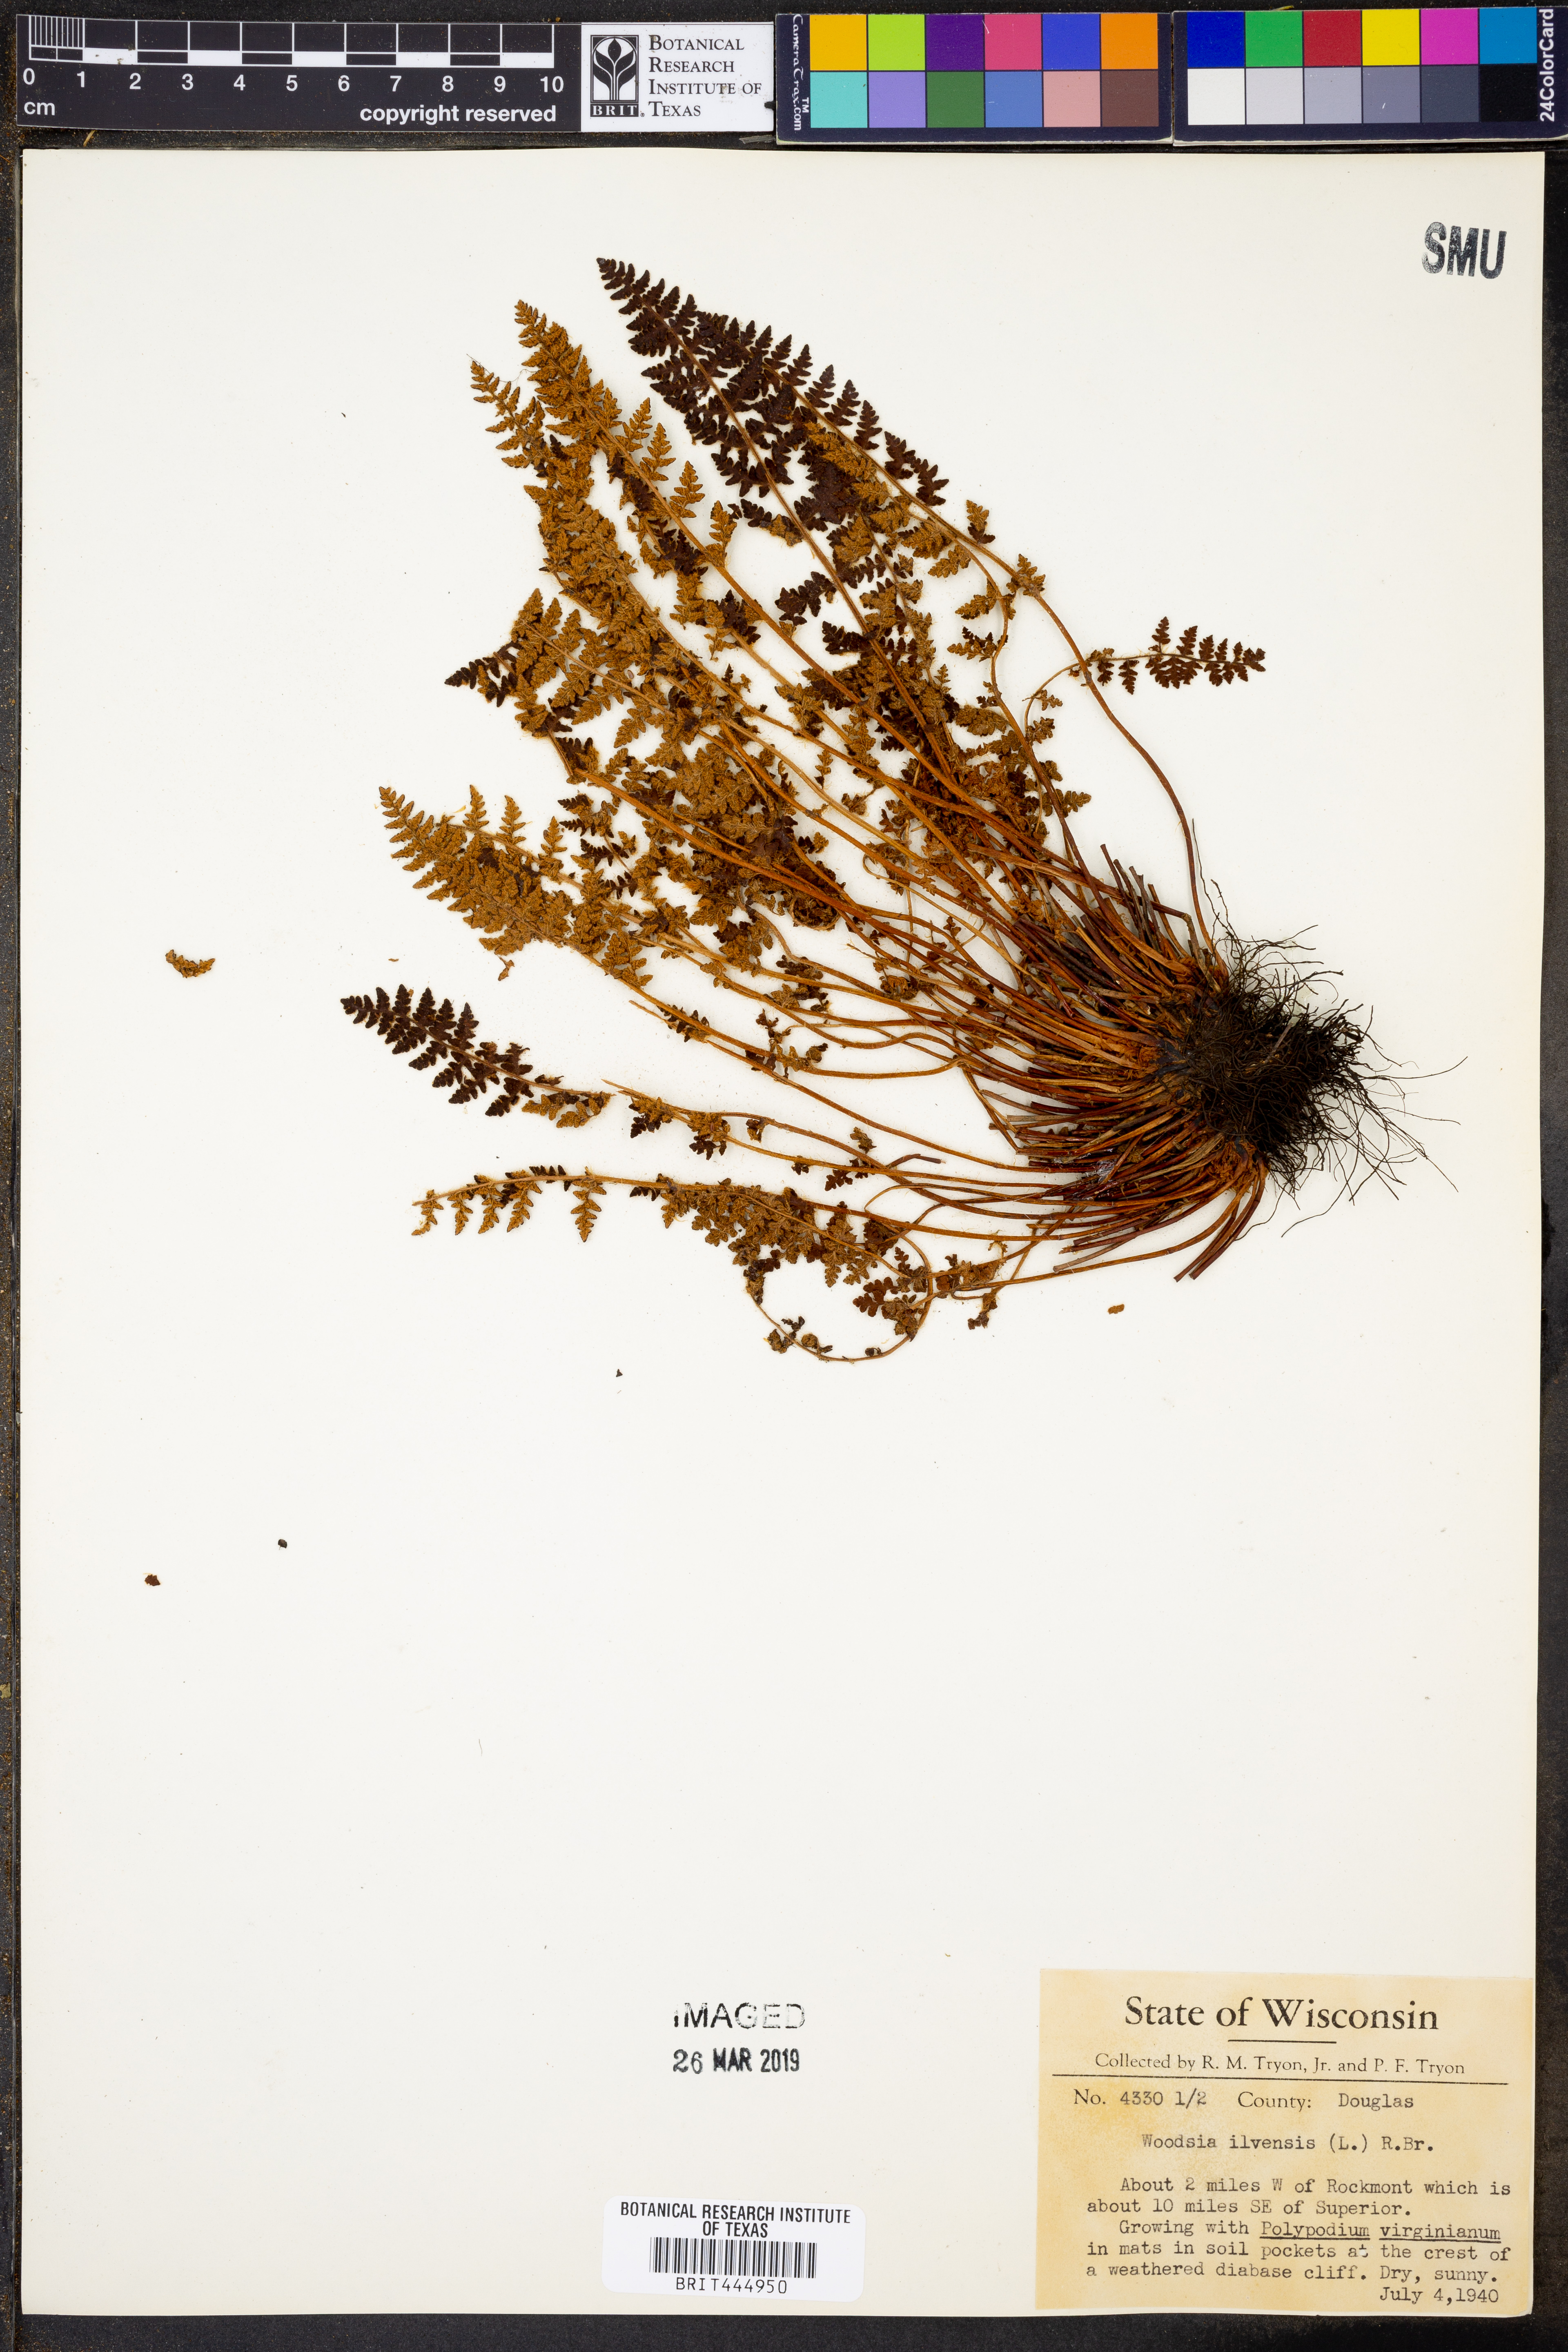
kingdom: Plantae
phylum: Tracheophyta
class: Polypodiopsida
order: Polypodiales
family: Woodsiaceae
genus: Woodsia
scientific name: Woodsia ilvensis
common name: Fragrant woodsia
